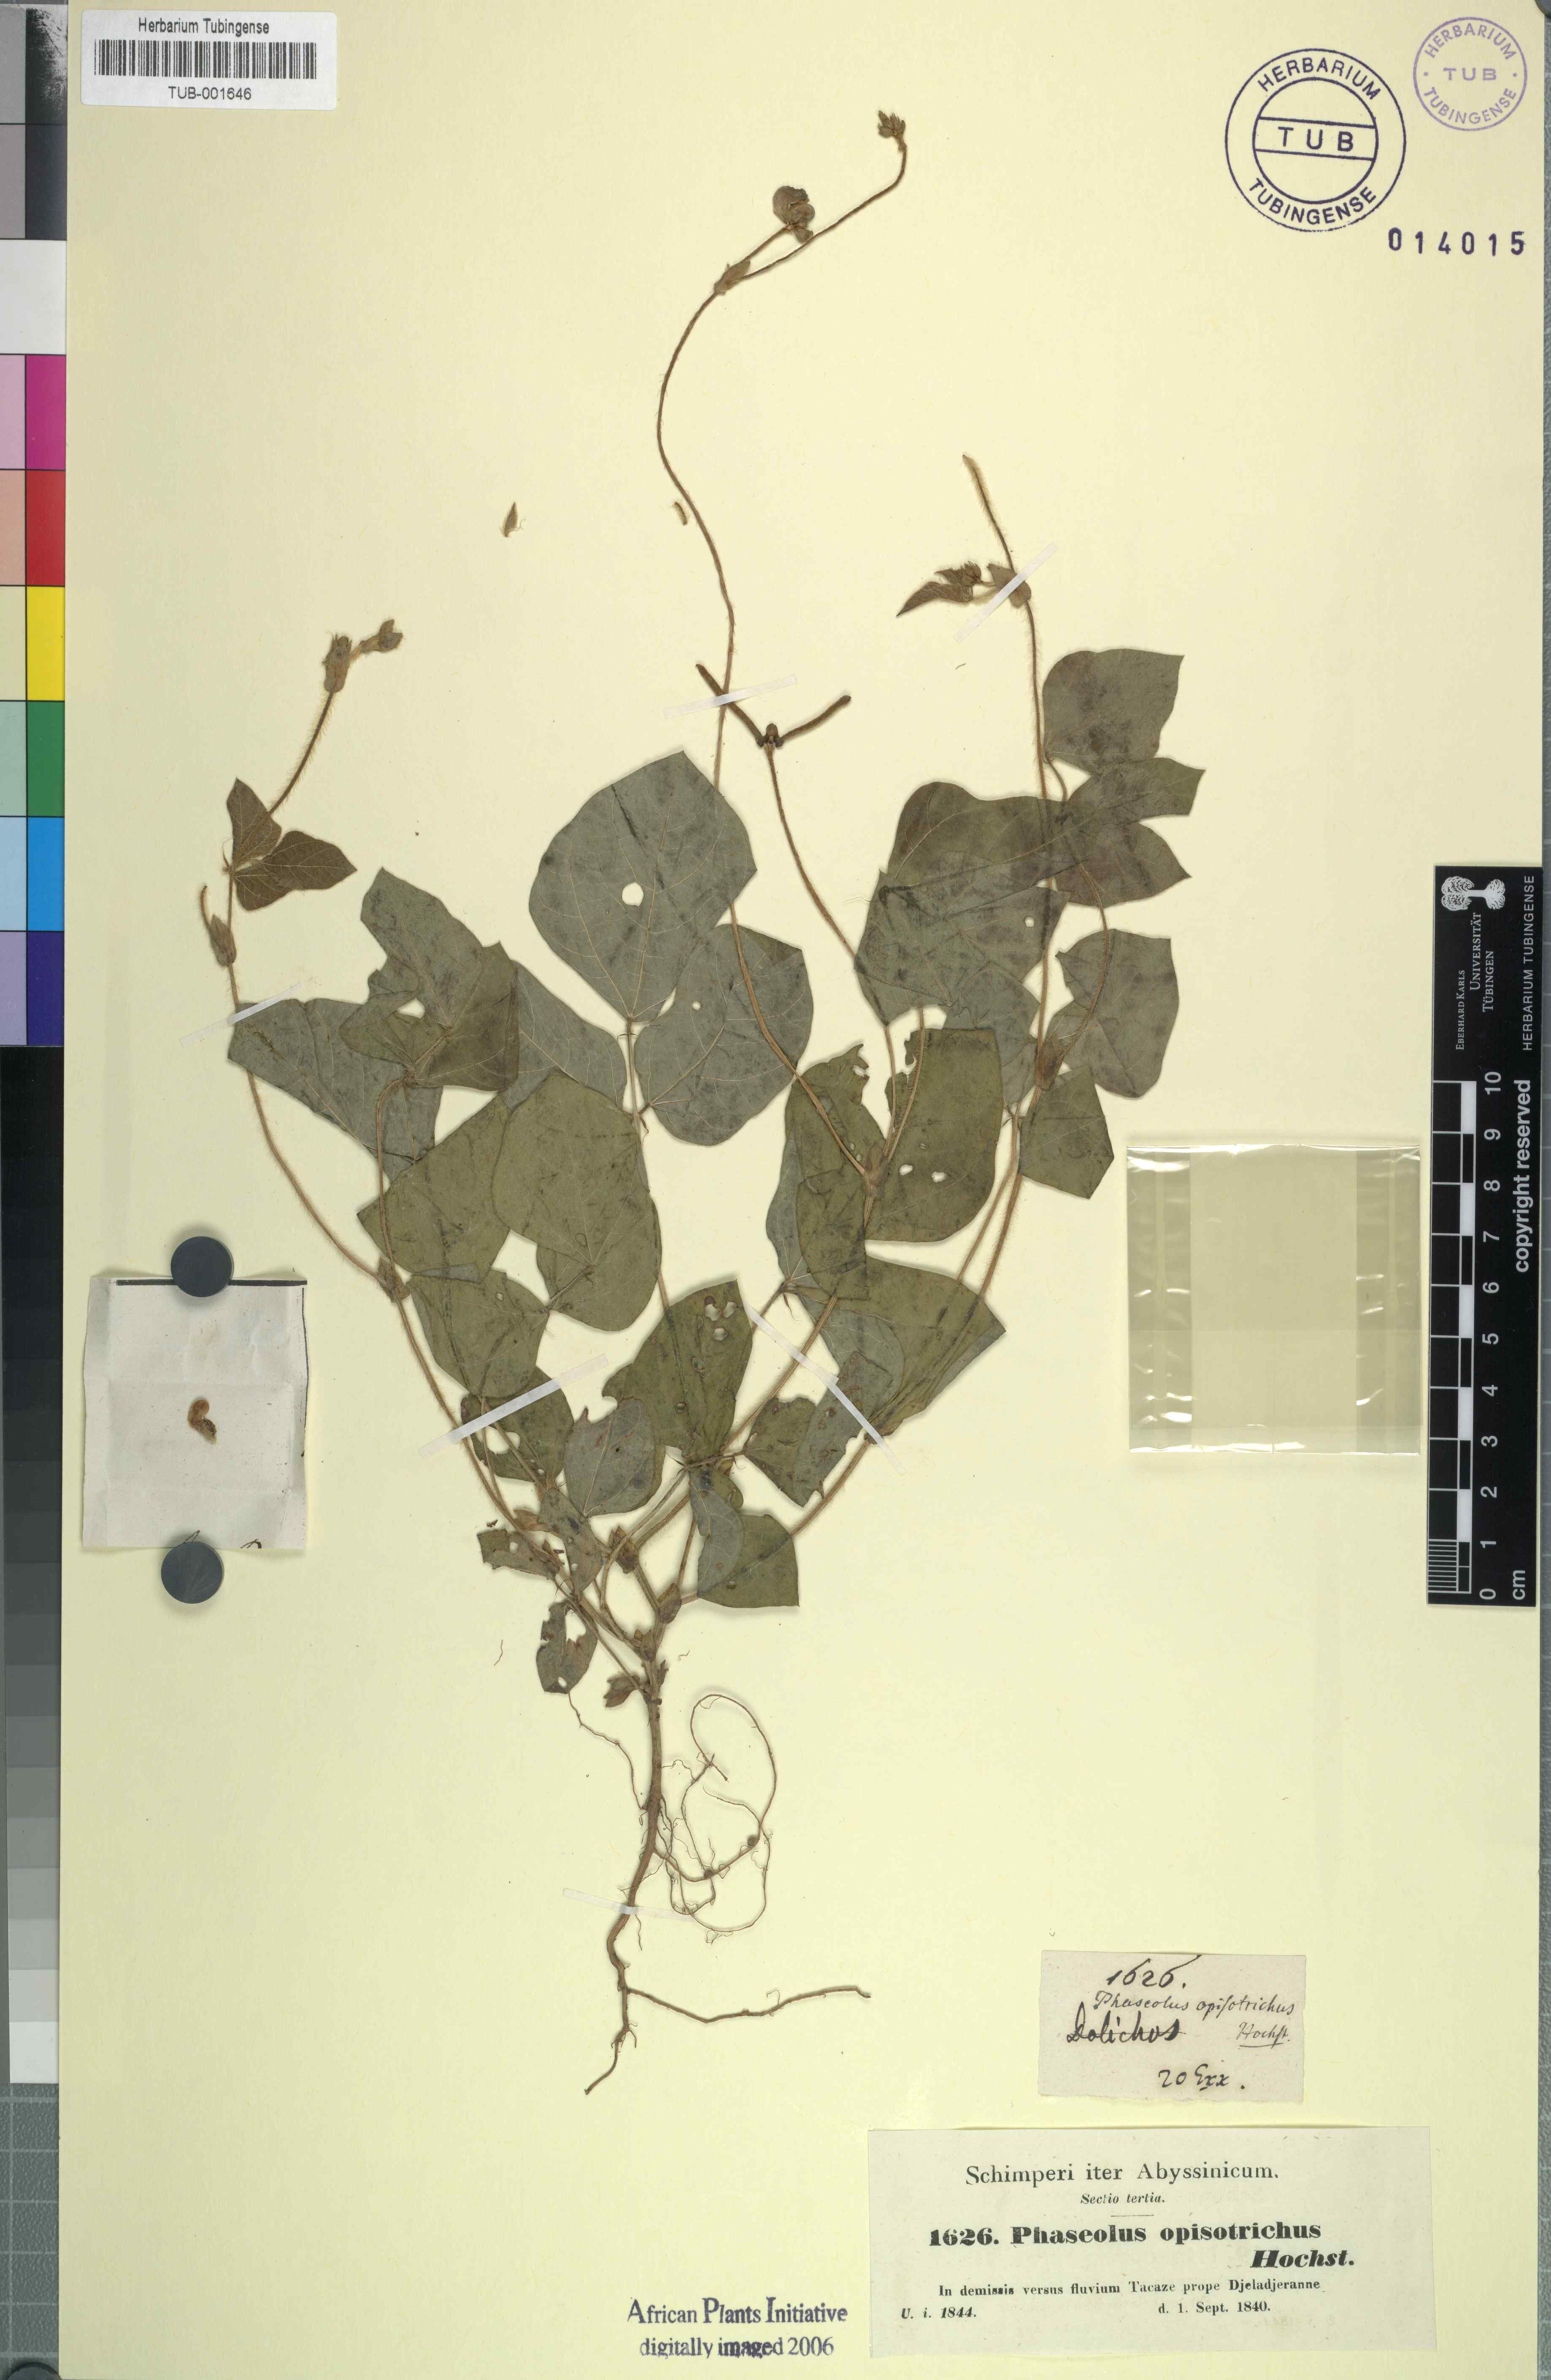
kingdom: Plantae
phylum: Tracheophyta
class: Magnoliopsida
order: Fabales
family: Fabaceae
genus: Vigna
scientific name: Vigna radiata
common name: Mung-bean
